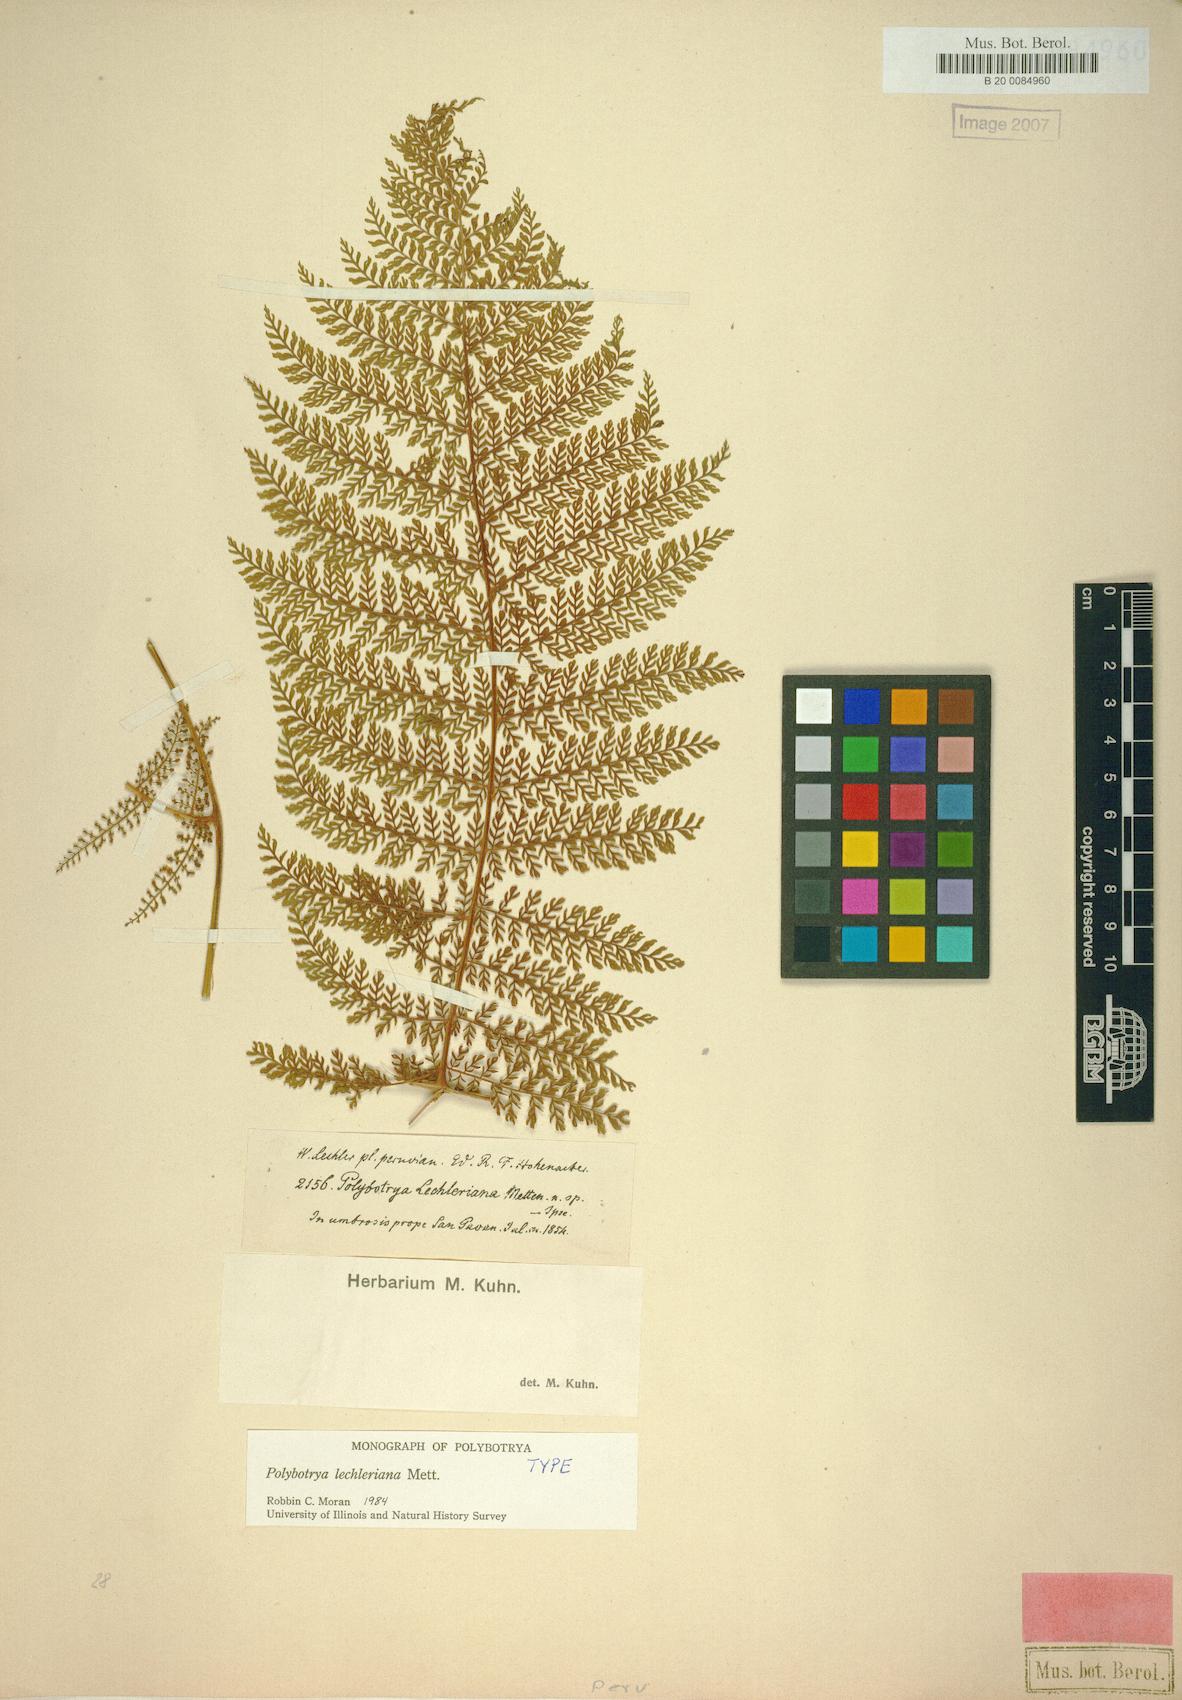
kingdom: Plantae
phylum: Tracheophyta
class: Polypodiopsida
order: Polypodiales
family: Dryopteridaceae
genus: Polybotrya
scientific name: Polybotrya lechleriana
